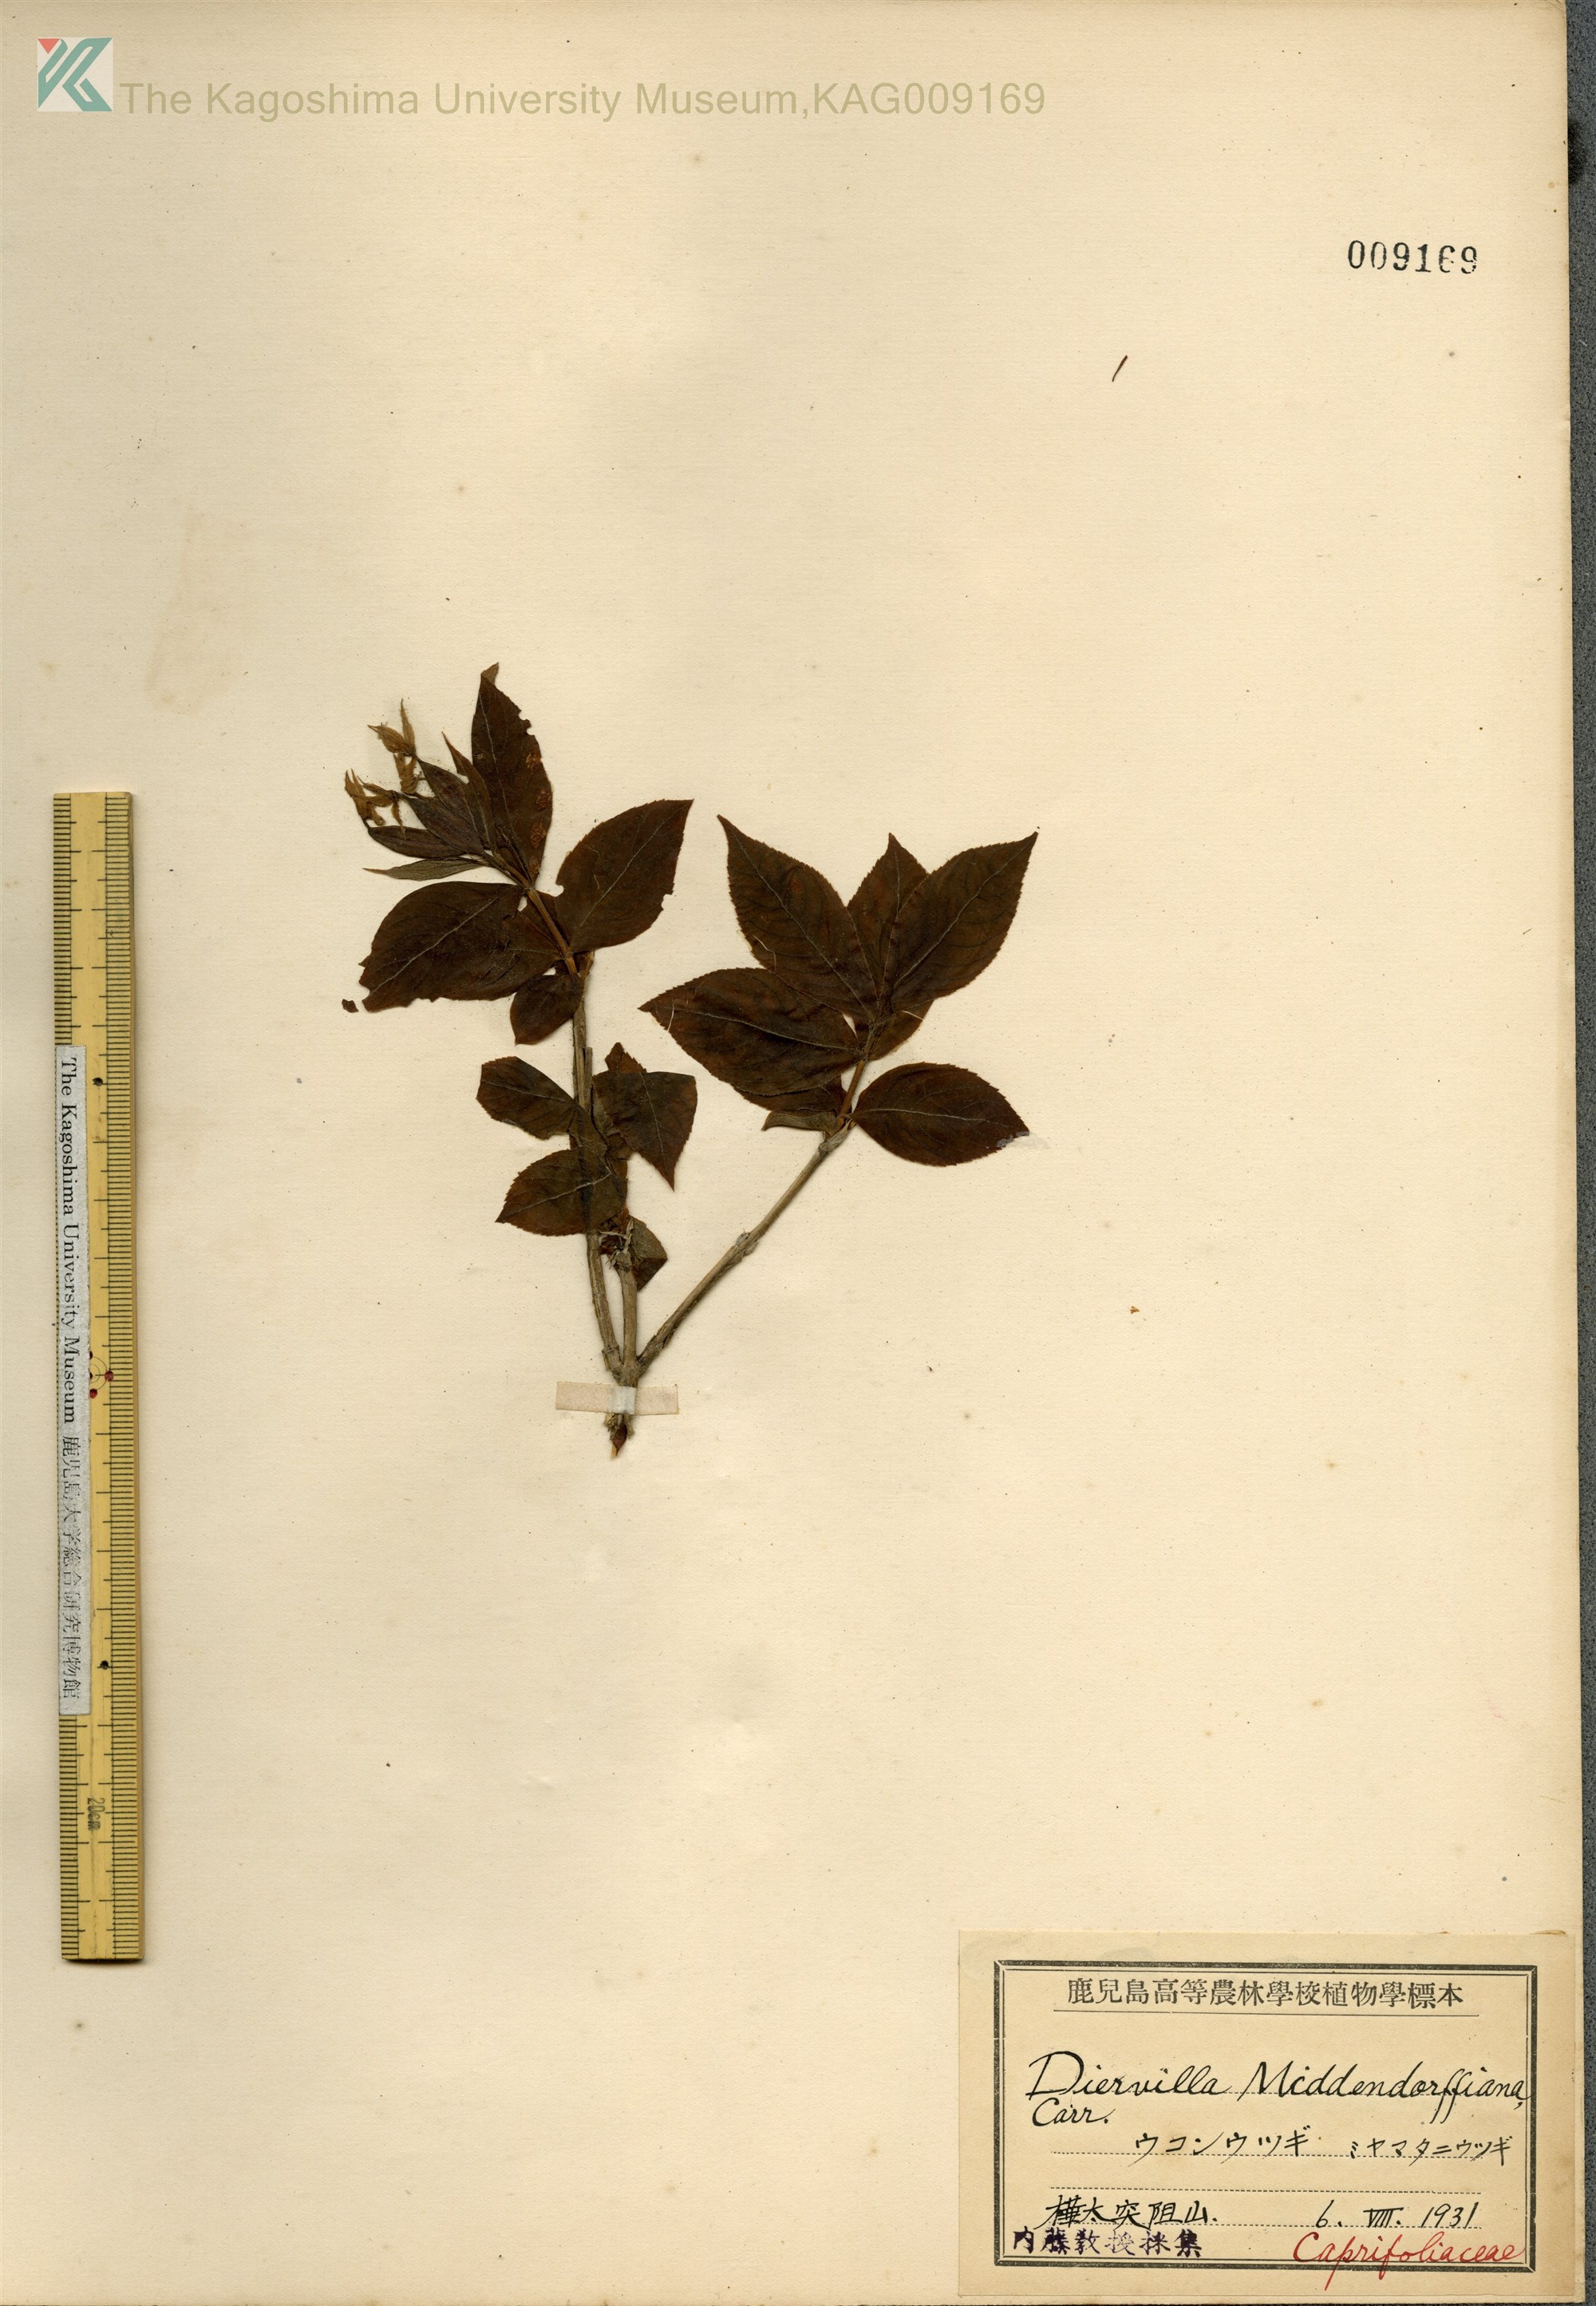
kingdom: Plantae
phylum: Tracheophyta
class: Magnoliopsida
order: Dipsacales
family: Caprifoliaceae
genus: Weigela
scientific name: Weigela middendorffiana
